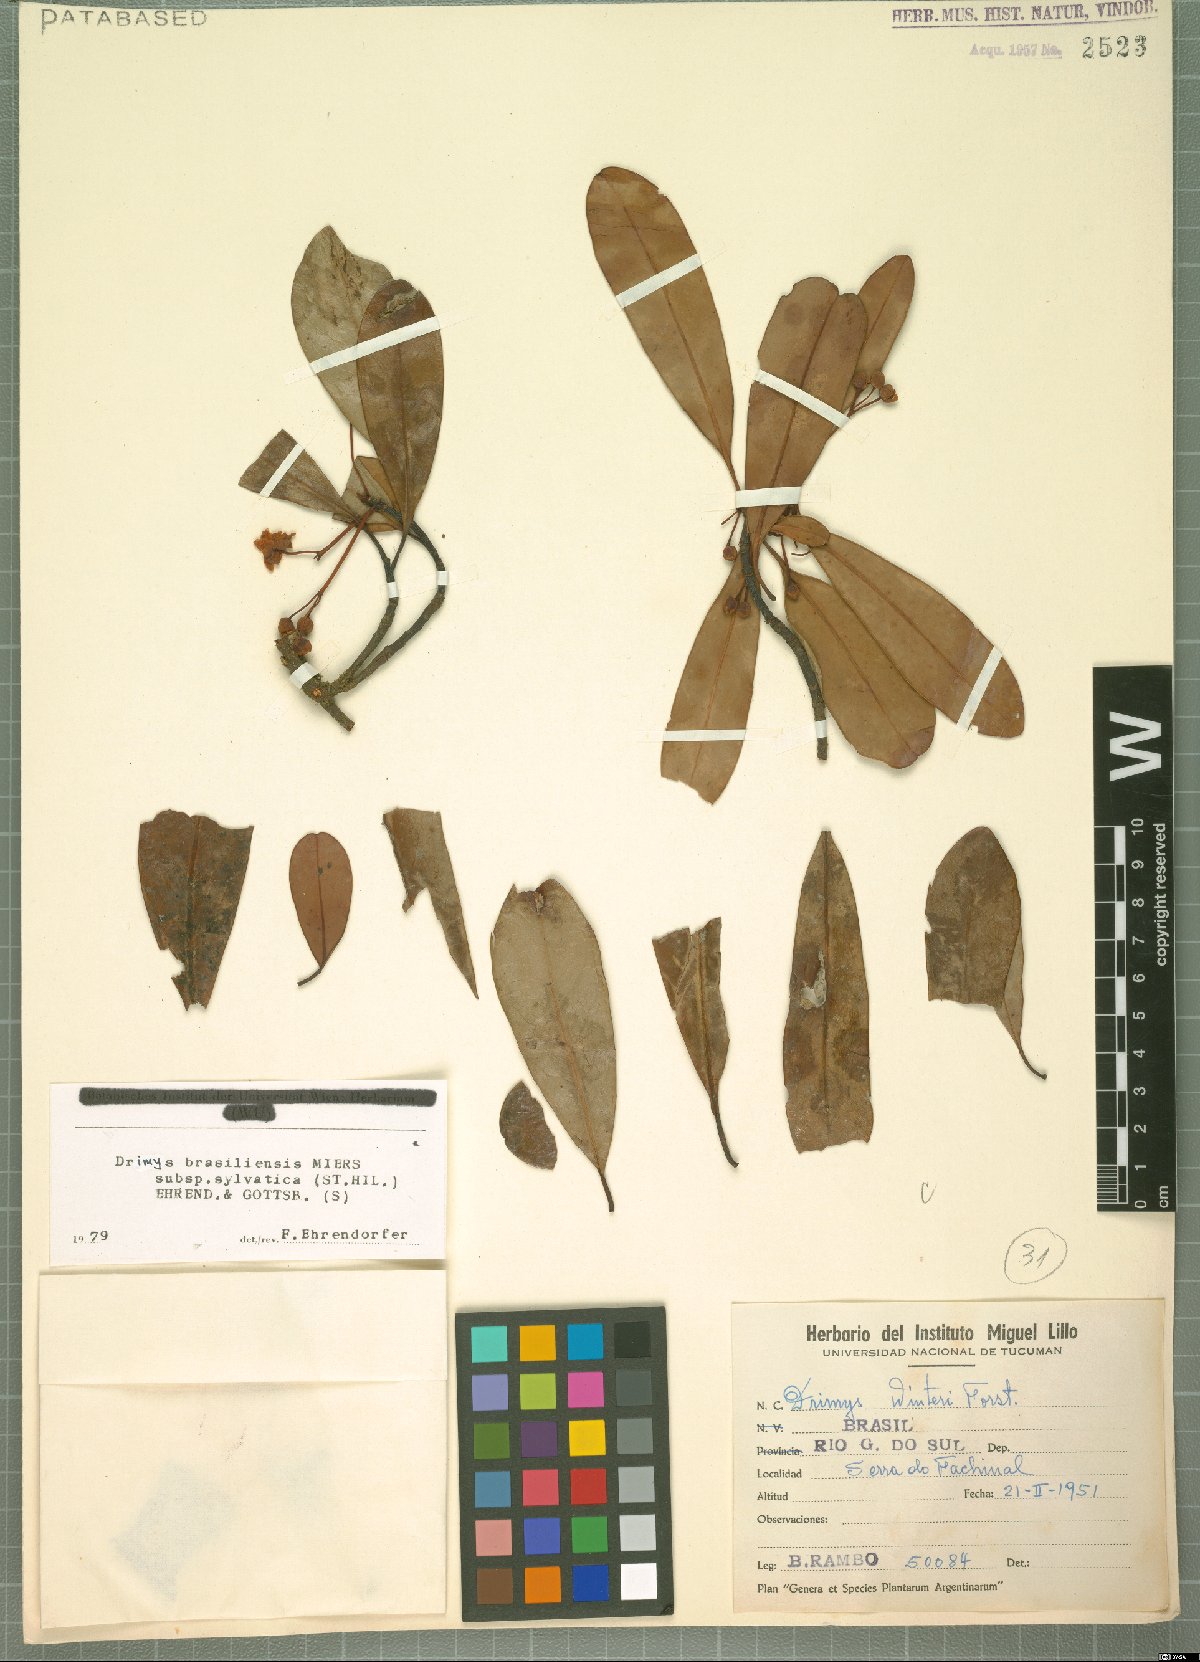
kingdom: Plantae
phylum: Tracheophyta
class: Magnoliopsida
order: Canellales
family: Winteraceae
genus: Drimys
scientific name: Drimys brasiliensis
